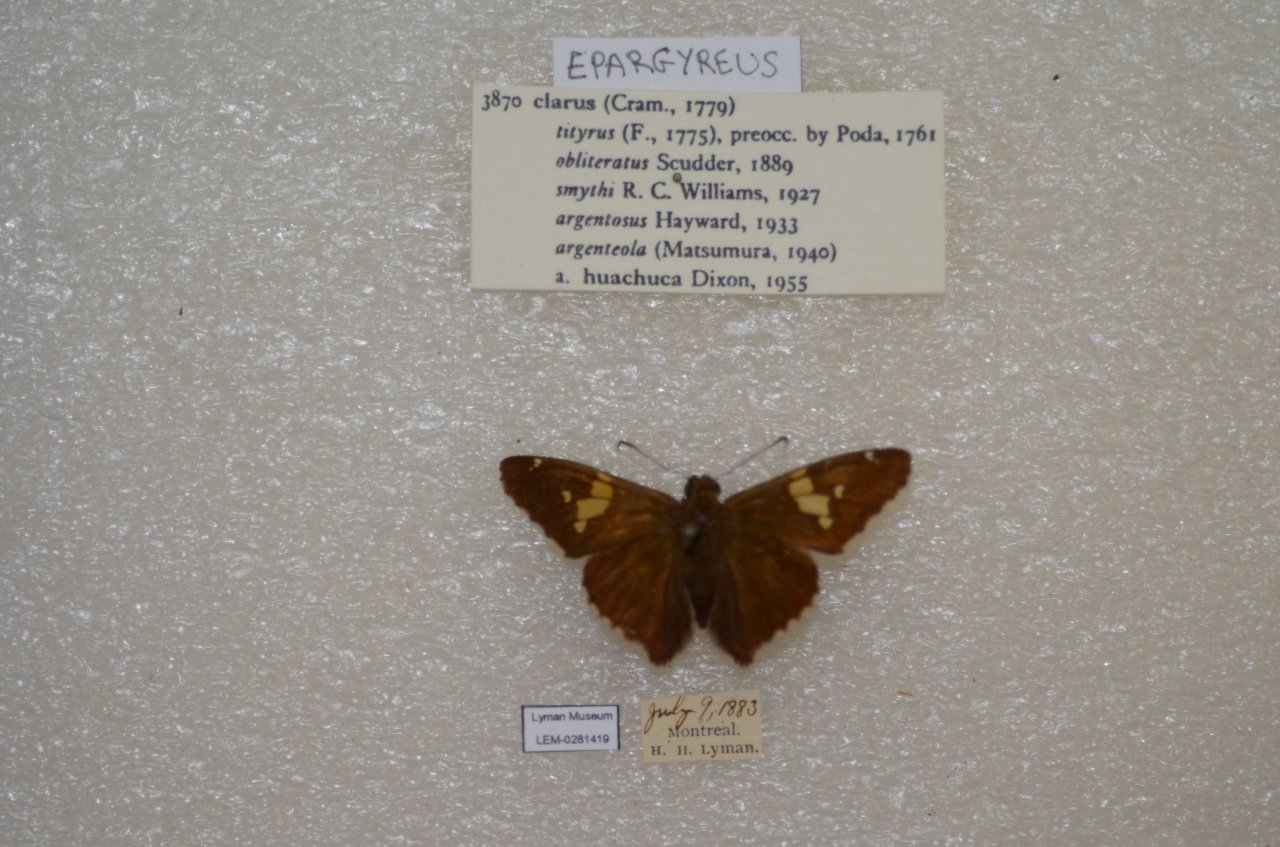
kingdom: Animalia
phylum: Arthropoda
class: Insecta
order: Lepidoptera
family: Hesperiidae
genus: Epargyreus
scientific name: Epargyreus clarus
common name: Silver-spotted Skipper
